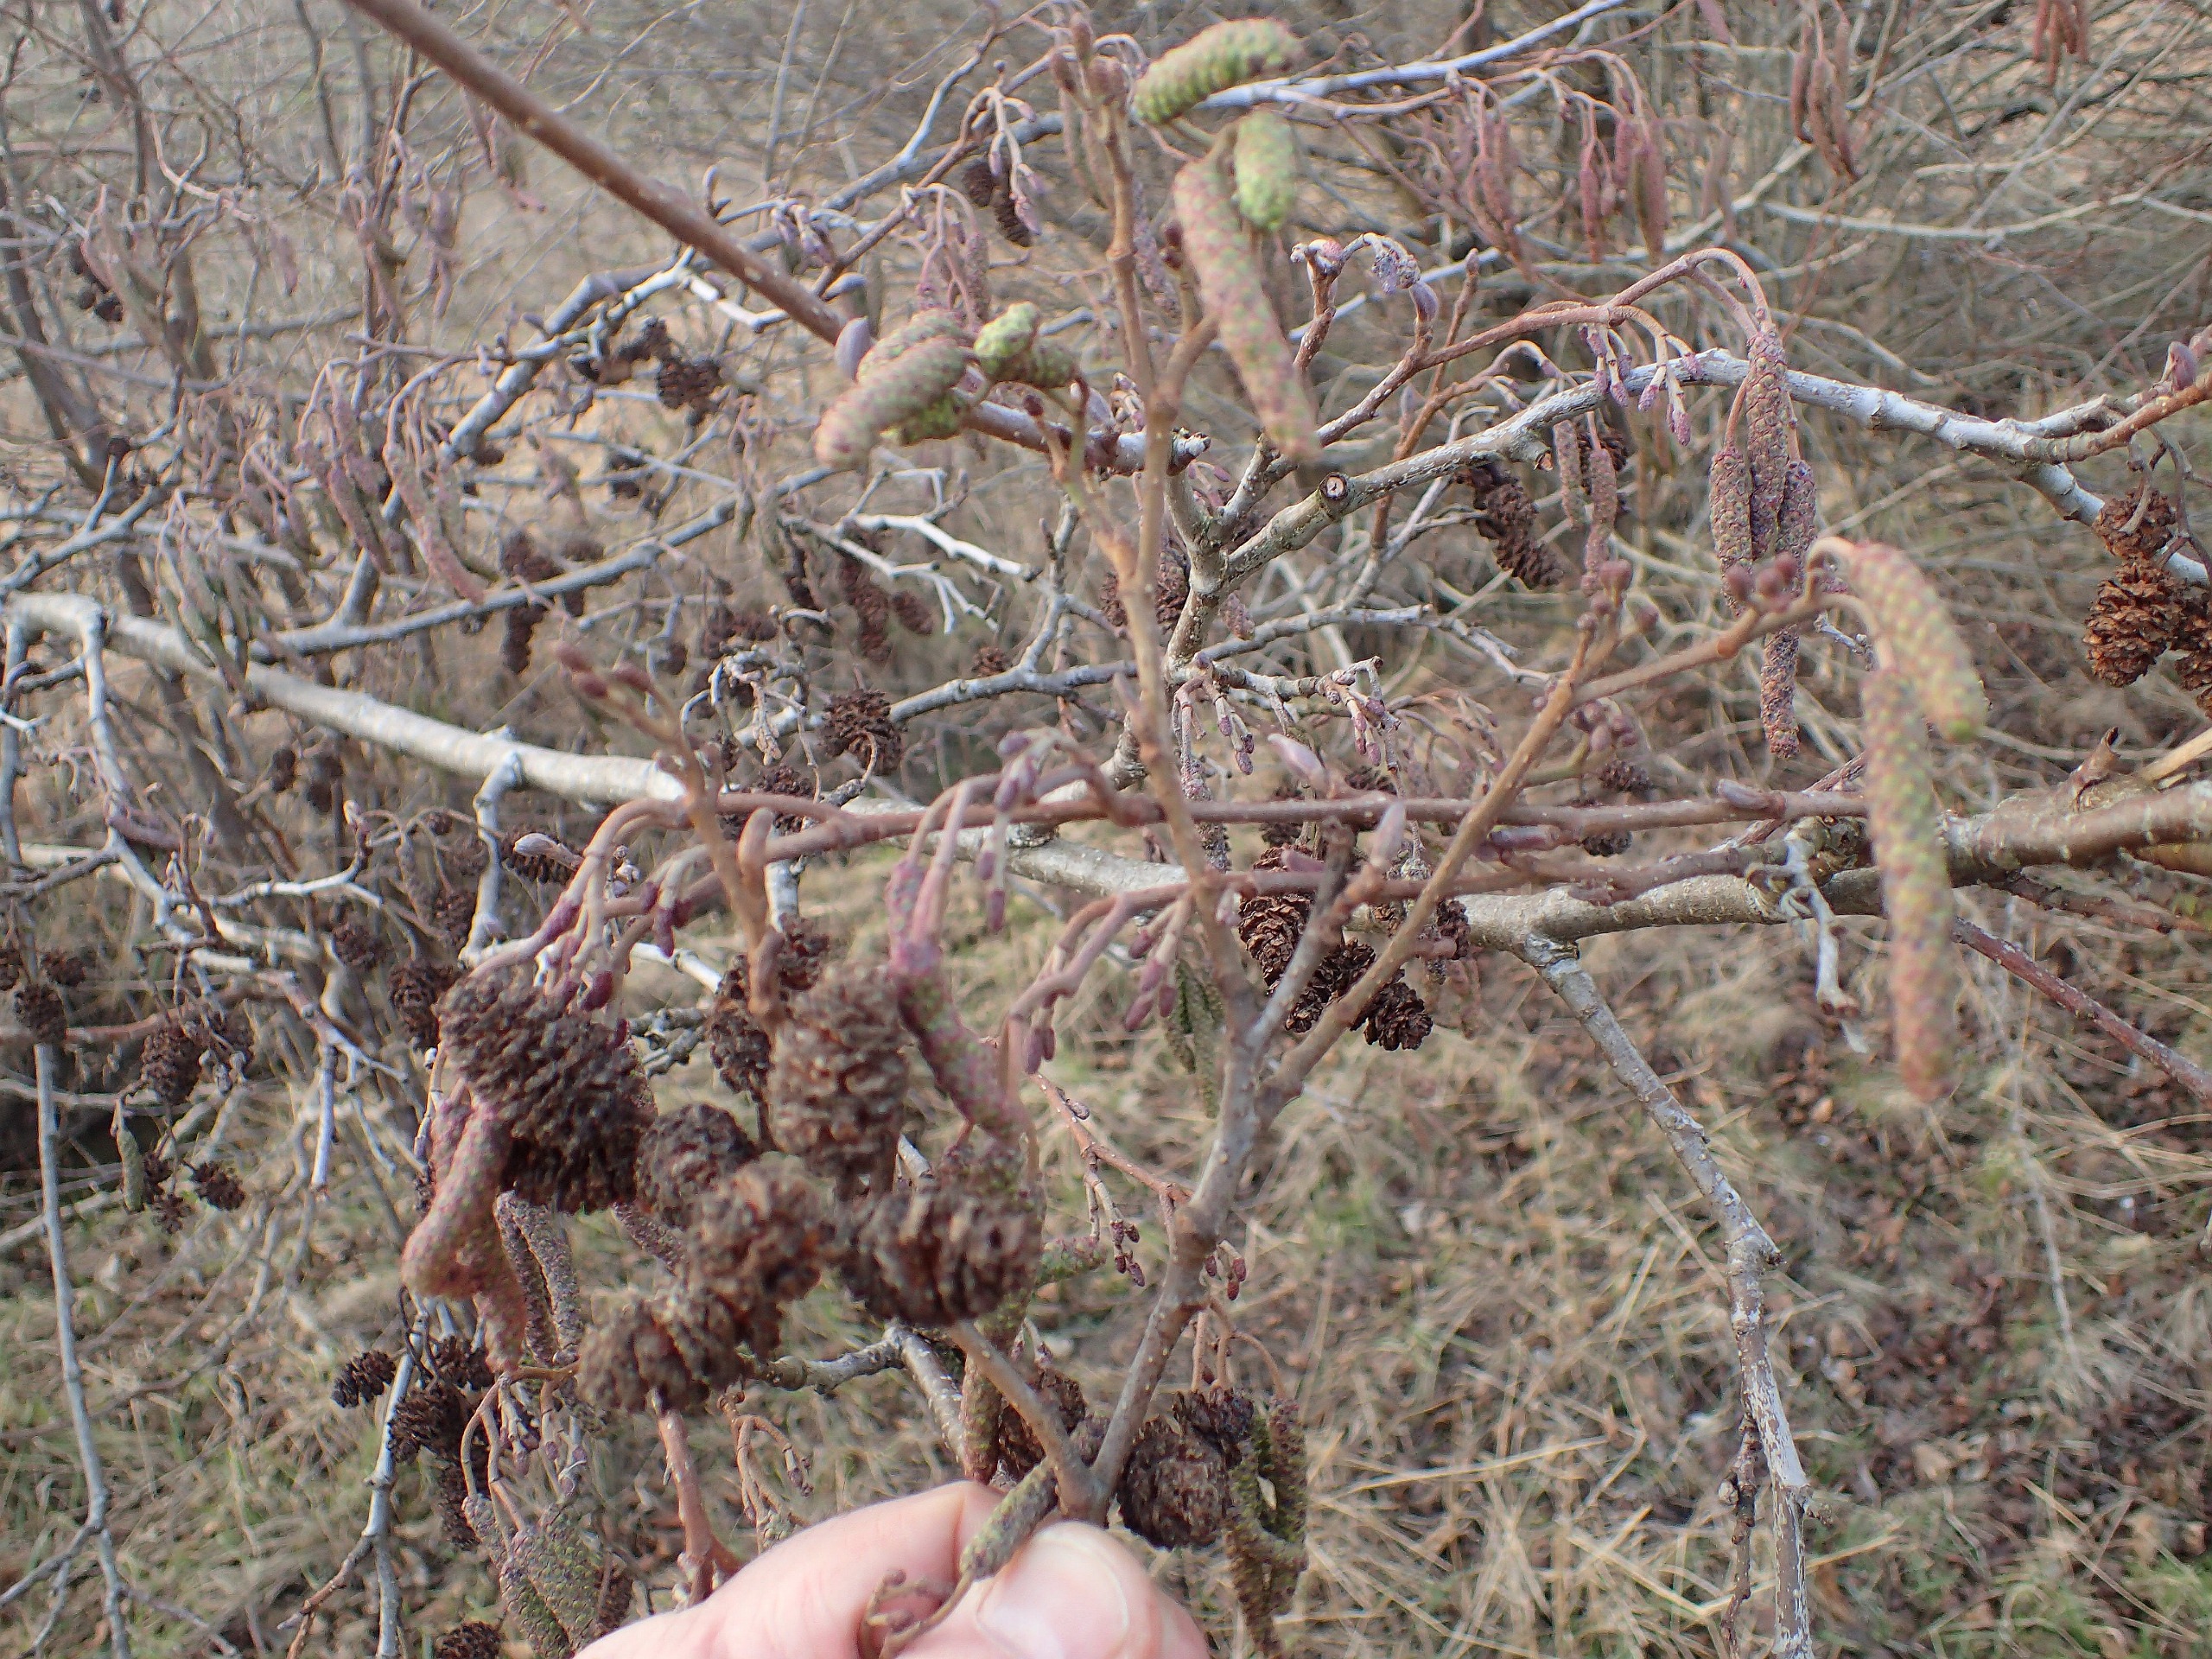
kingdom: Plantae
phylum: Tracheophyta
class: Magnoliopsida
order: Fagales
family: Betulaceae
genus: Alnus
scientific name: Alnus glutinosa
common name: Rød-el
